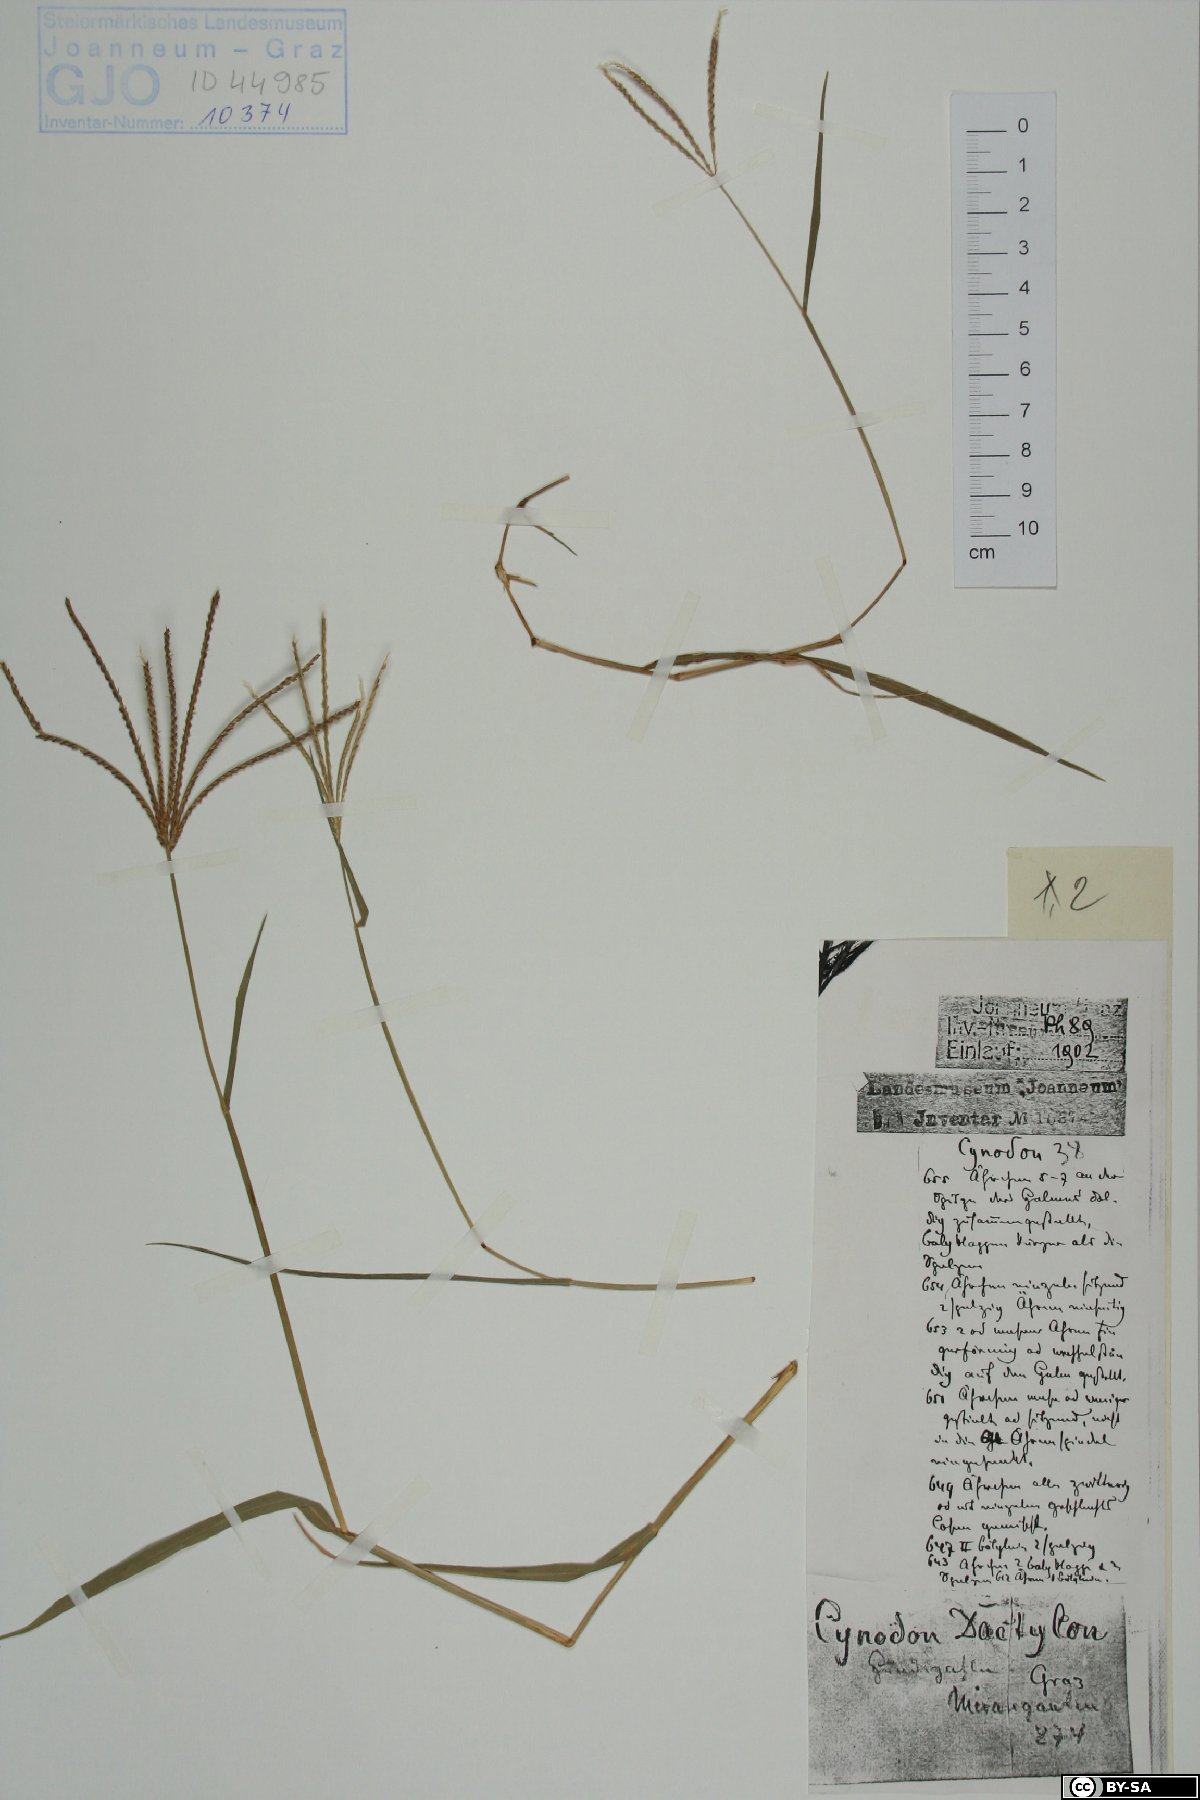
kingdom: Plantae
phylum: Tracheophyta
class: Liliopsida
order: Poales
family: Poaceae
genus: Cynodon
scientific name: Cynodon dactylon
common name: Bermuda grass
